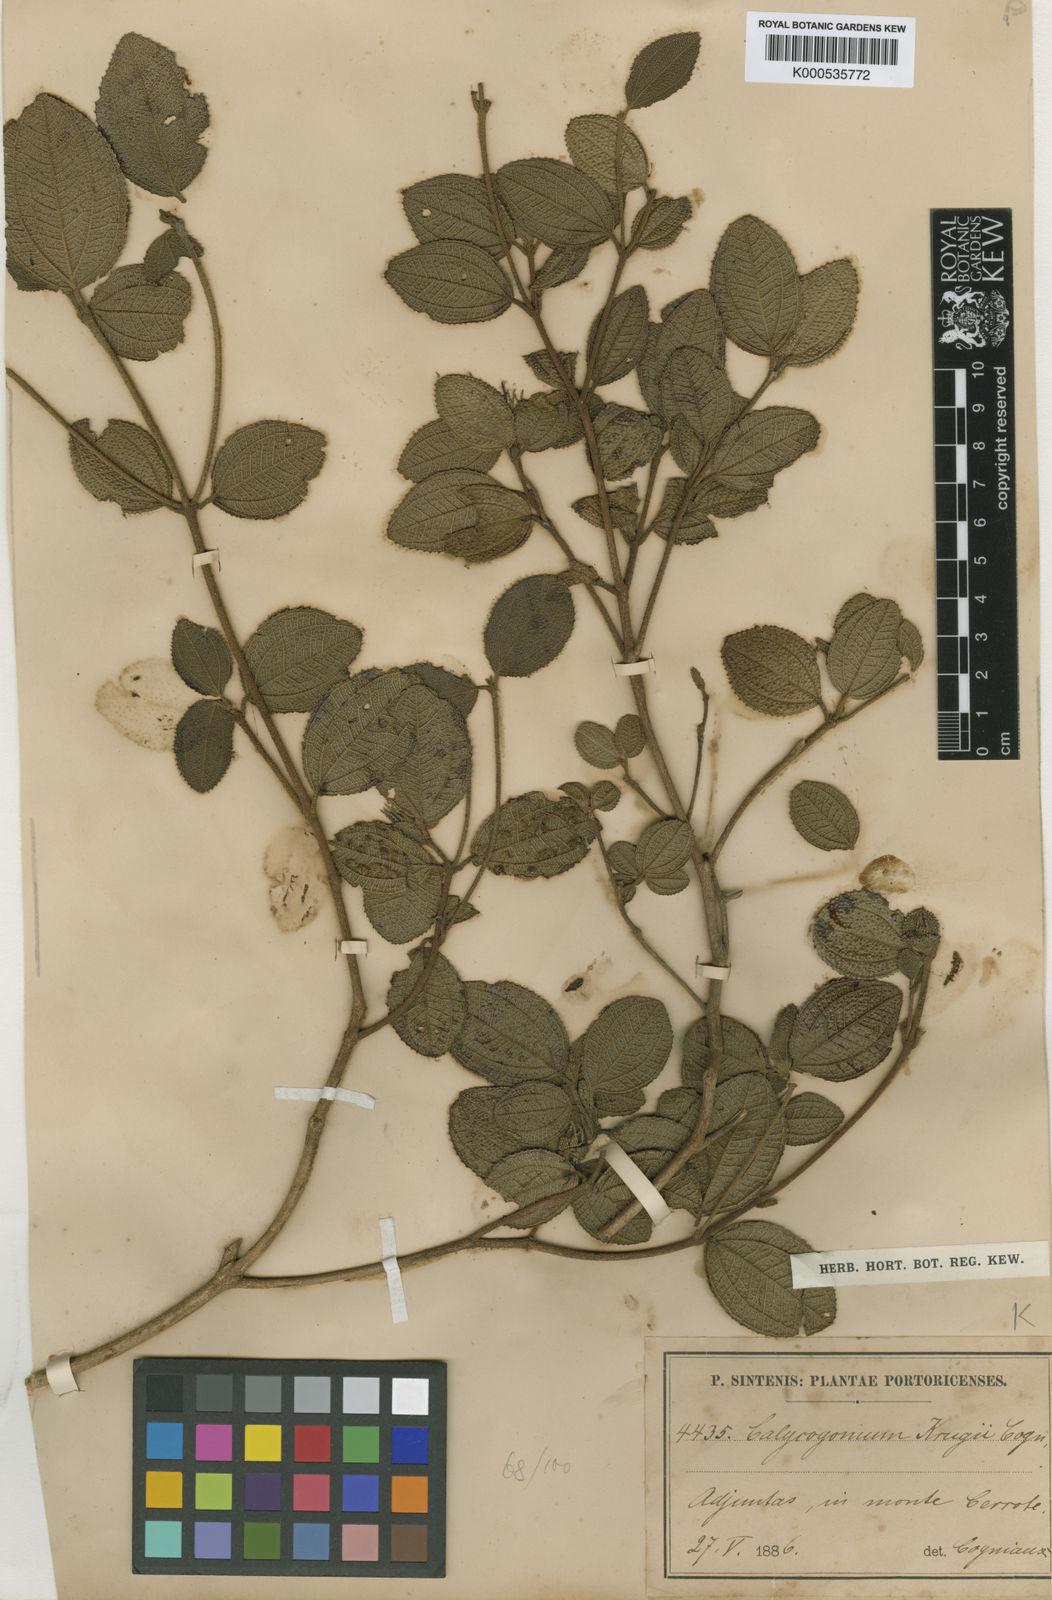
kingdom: Plantae
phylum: Tracheophyta
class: Magnoliopsida
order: Myrtales
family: Melastomataceae
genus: Miconia
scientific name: Miconia karlkrugii
